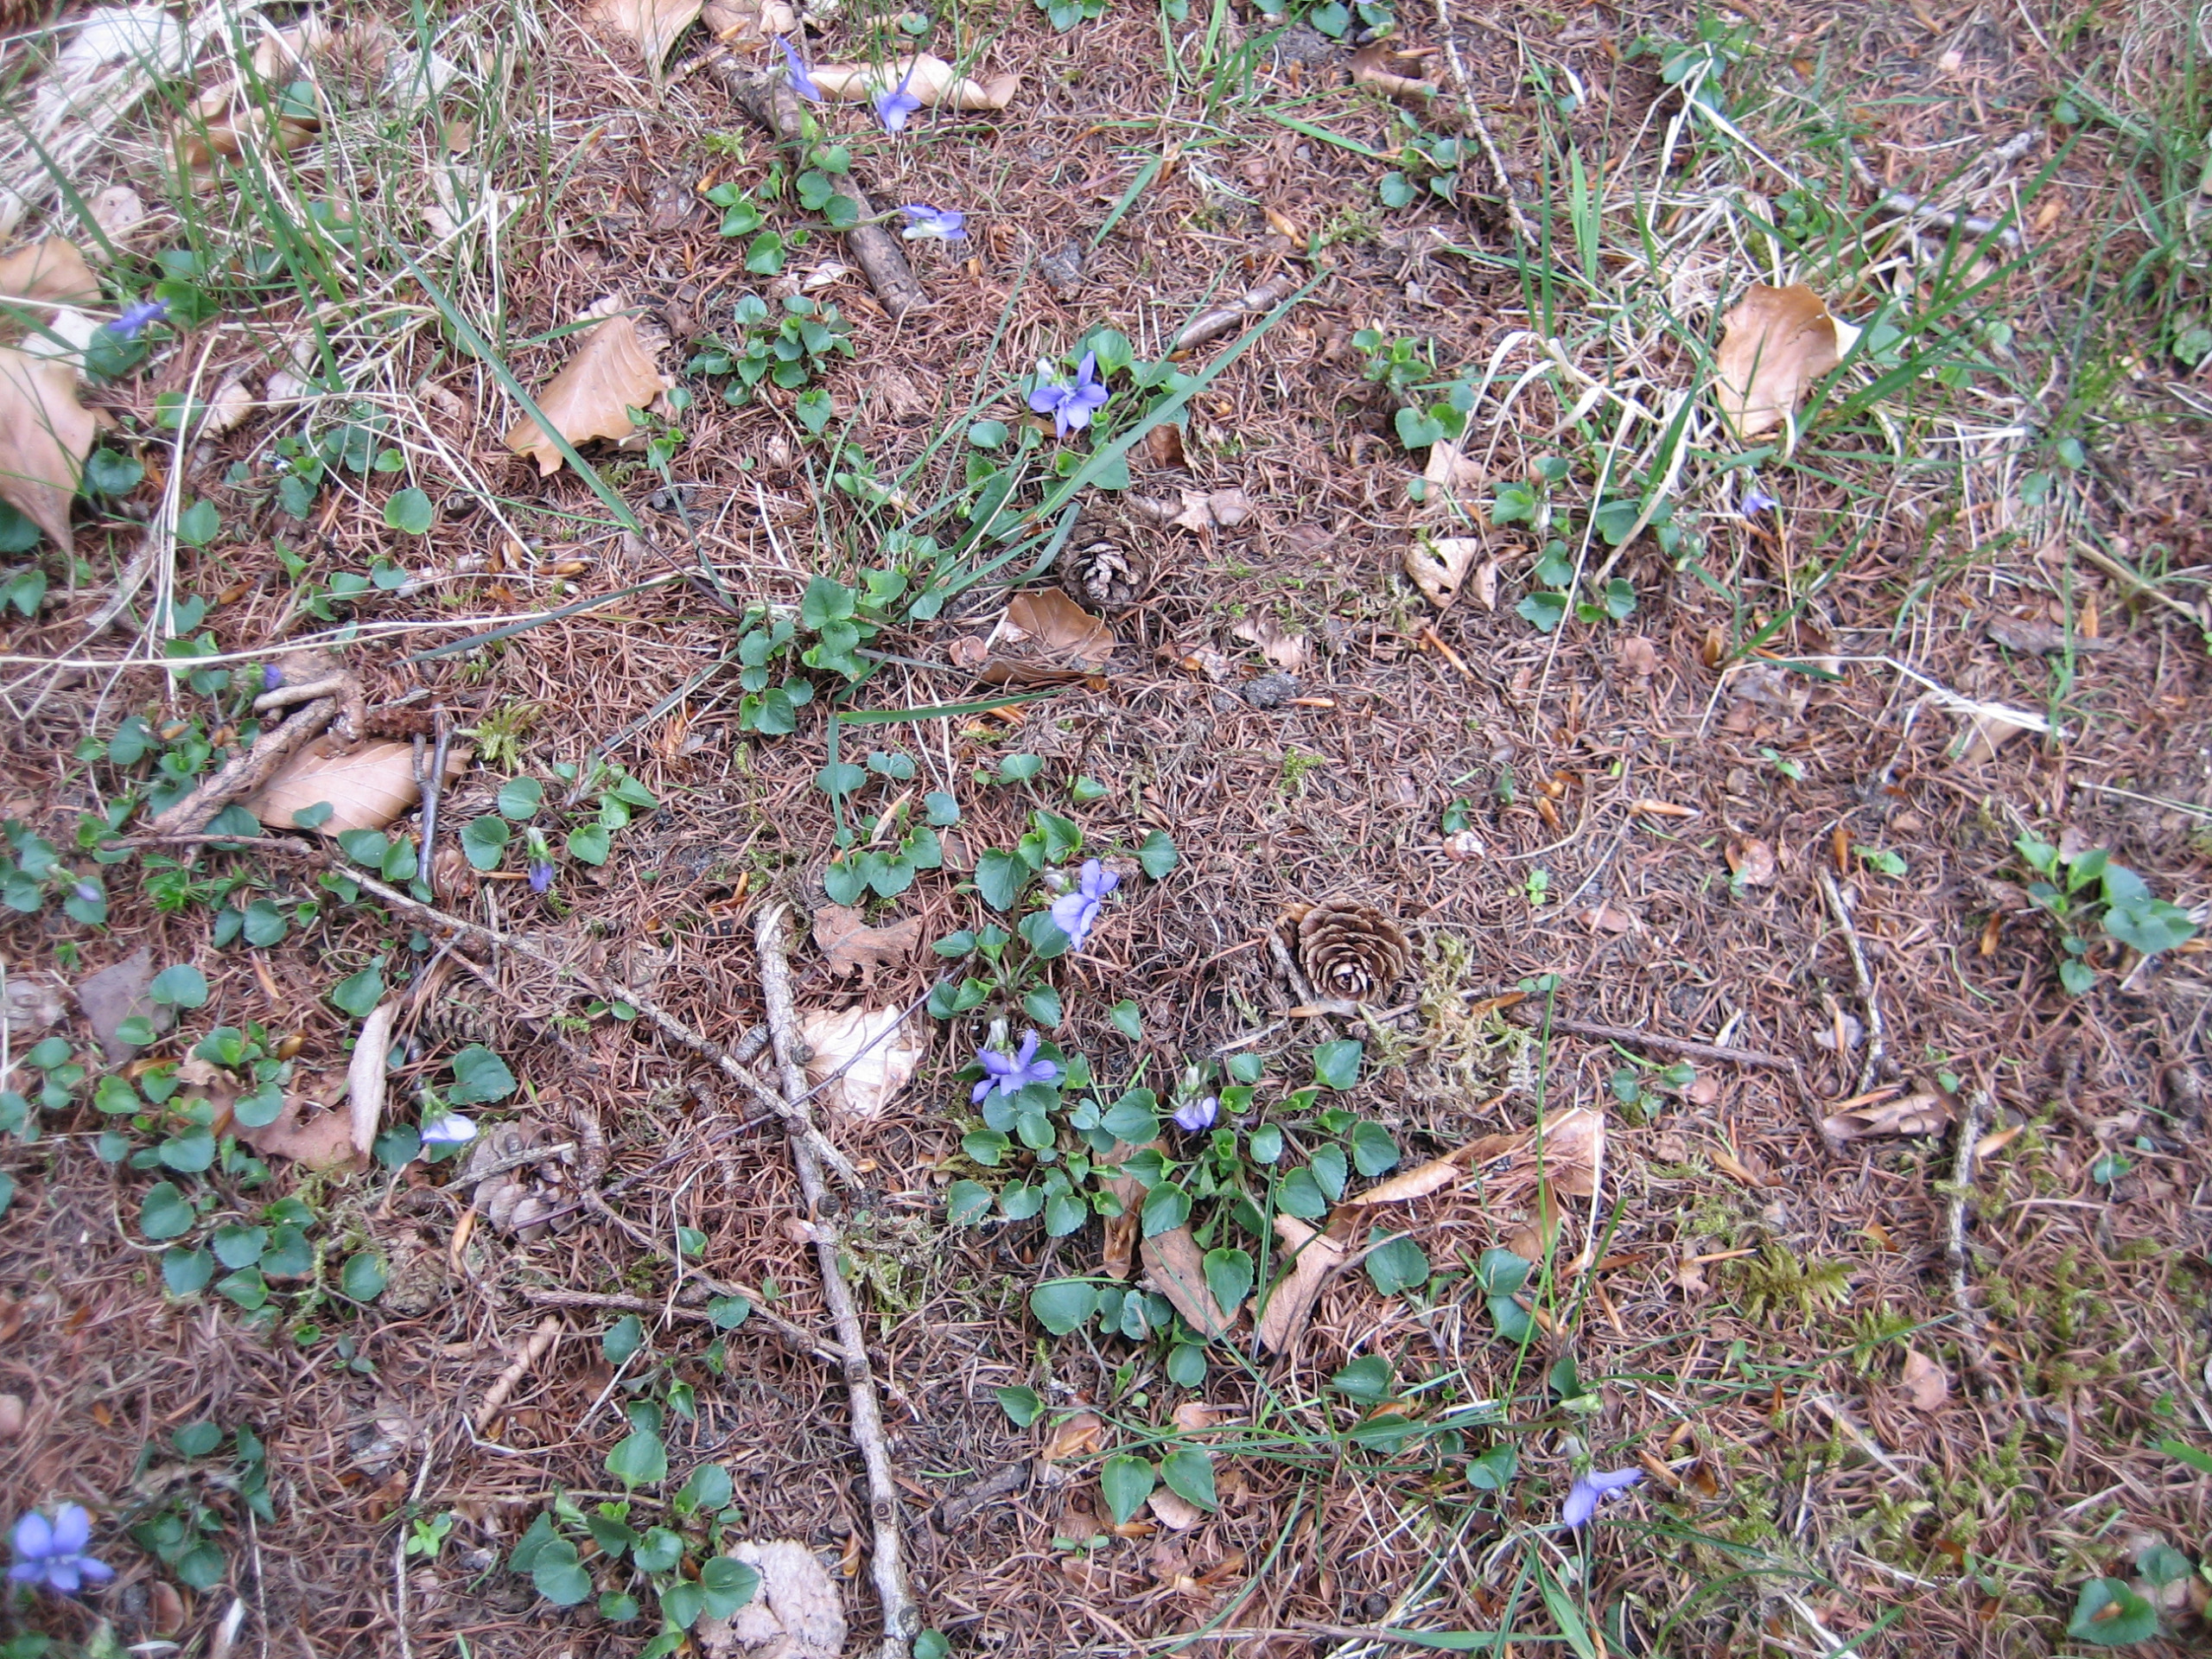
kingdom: Plantae
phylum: Tracheophyta
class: Magnoliopsida
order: Malpighiales
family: Violaceae
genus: Viola
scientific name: Viola riviniana
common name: Krat-viol
